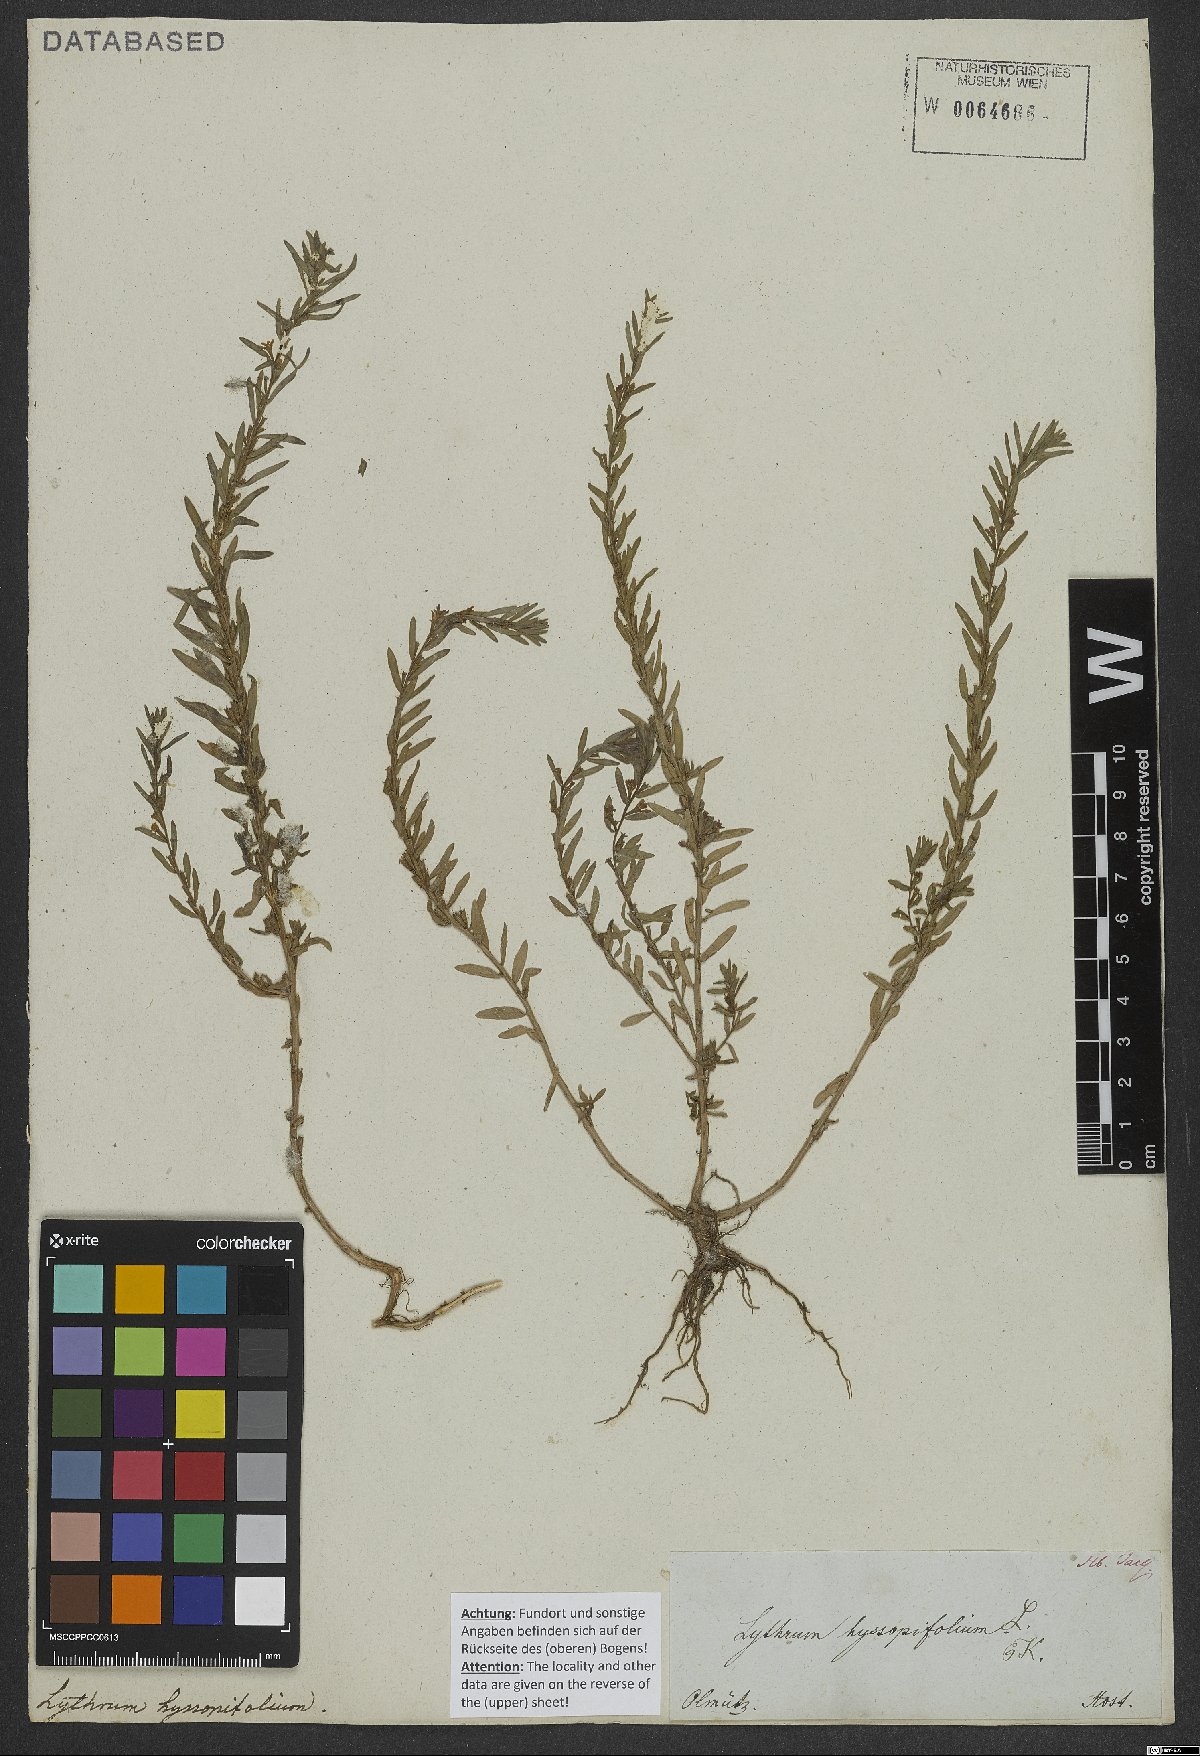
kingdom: Plantae
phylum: Tracheophyta
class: Magnoliopsida
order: Myrtales
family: Lythraceae
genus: Lythrum
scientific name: Lythrum hyssopifolia
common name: Grass-poly
